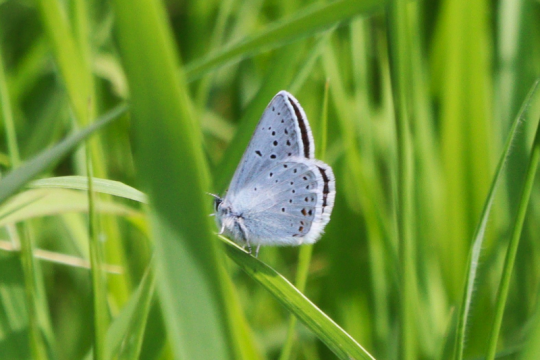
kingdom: Animalia
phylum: Arthropoda
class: Insecta
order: Lepidoptera
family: Lycaenidae
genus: Plebejus
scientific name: Plebejus saepiolus
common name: Greenish Blue
